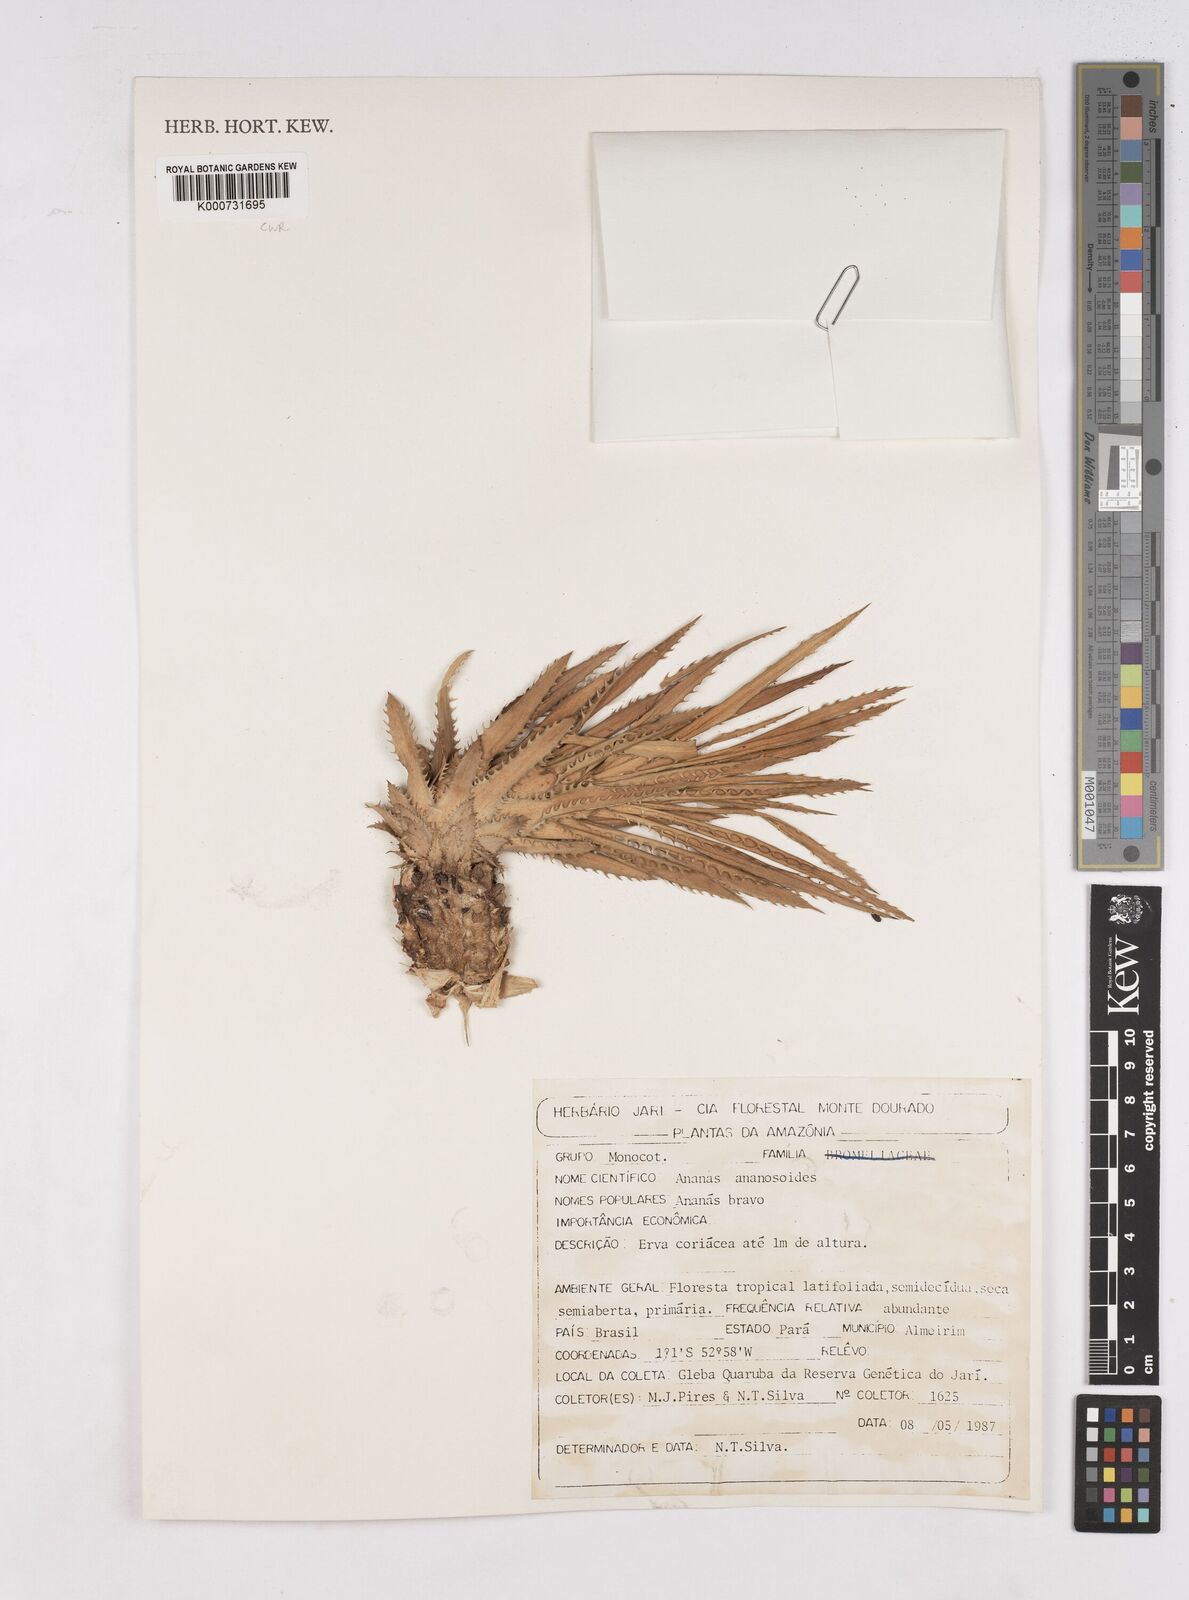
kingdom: Plantae
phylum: Tracheophyta
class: Liliopsida
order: Poales
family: Bromeliaceae
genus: Ananas
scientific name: Ananas comosus
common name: Pineapple
